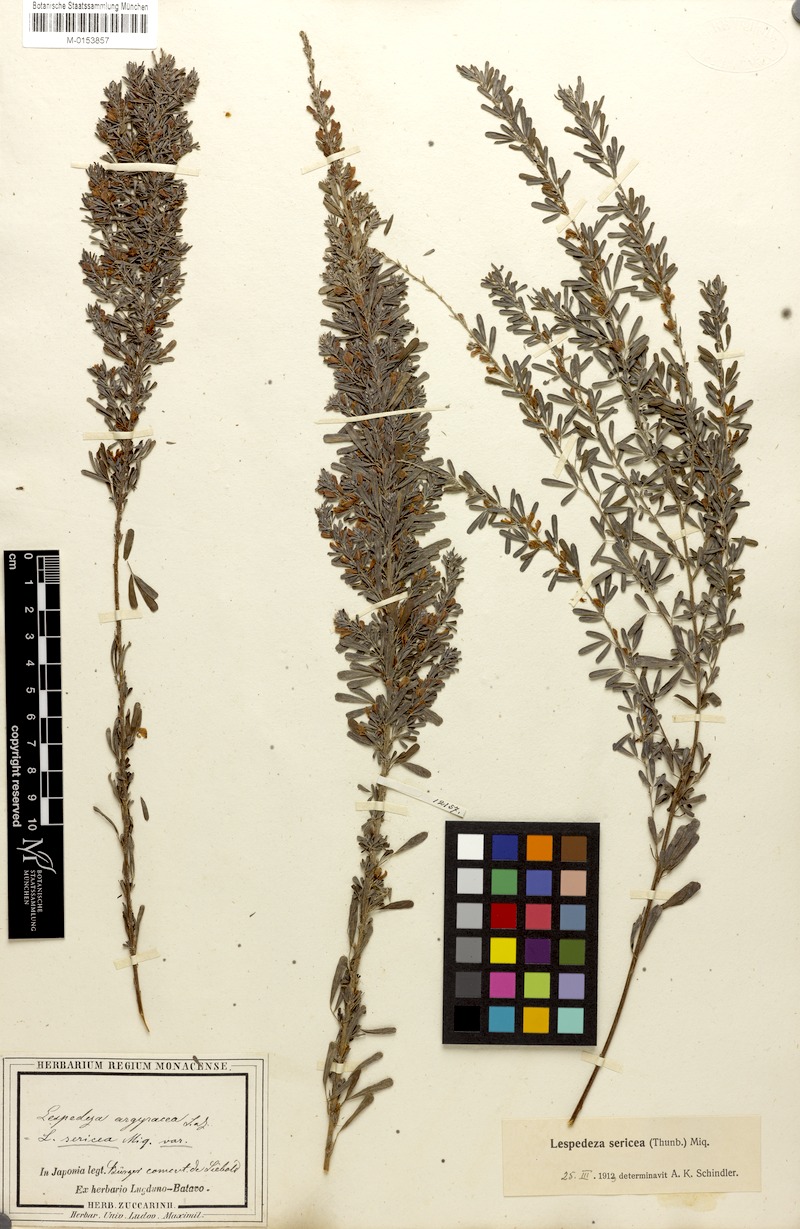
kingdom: Plantae
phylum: Tracheophyta
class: Magnoliopsida
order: Fabales
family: Fabaceae
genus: Lespedeza
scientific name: Lespedeza cuneata
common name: Chinese bush-clover
